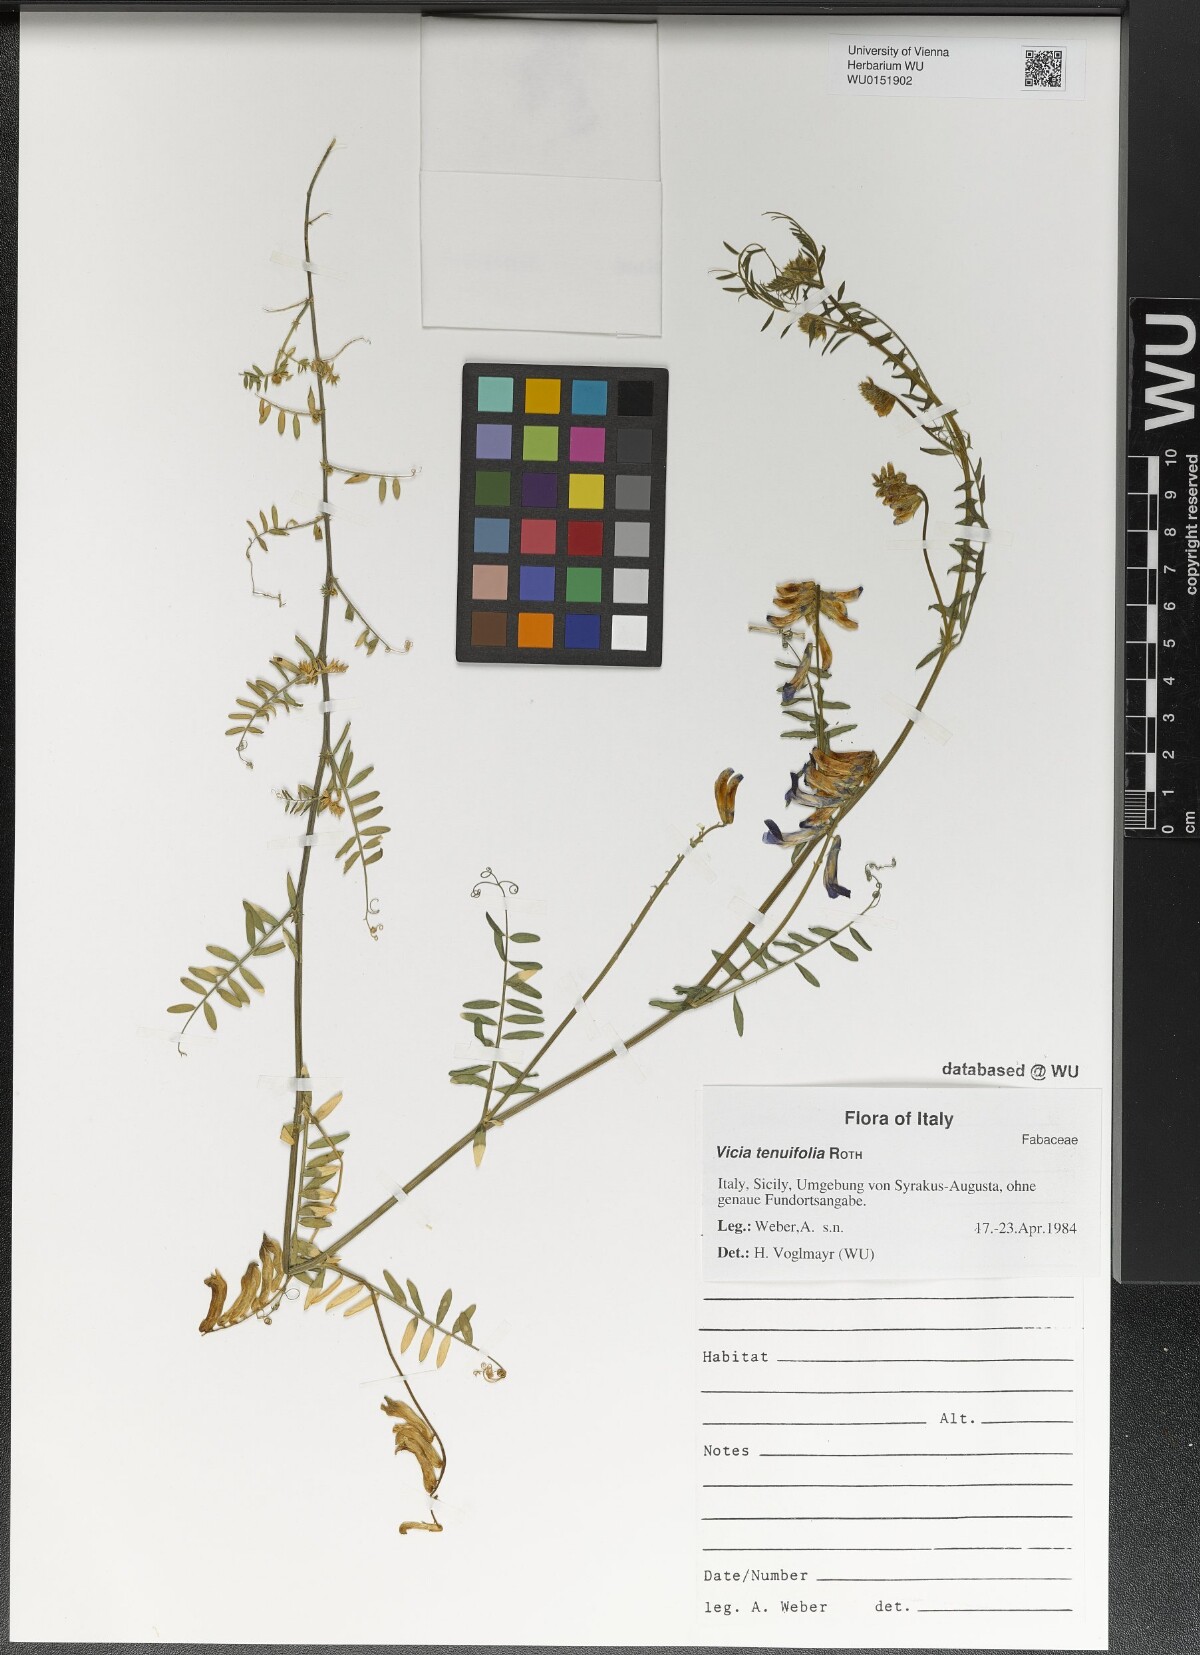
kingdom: Plantae
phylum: Tracheophyta
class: Magnoliopsida
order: Fabales
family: Fabaceae
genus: Vicia
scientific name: Vicia tenuifolia
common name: Fine-leaved vetch
